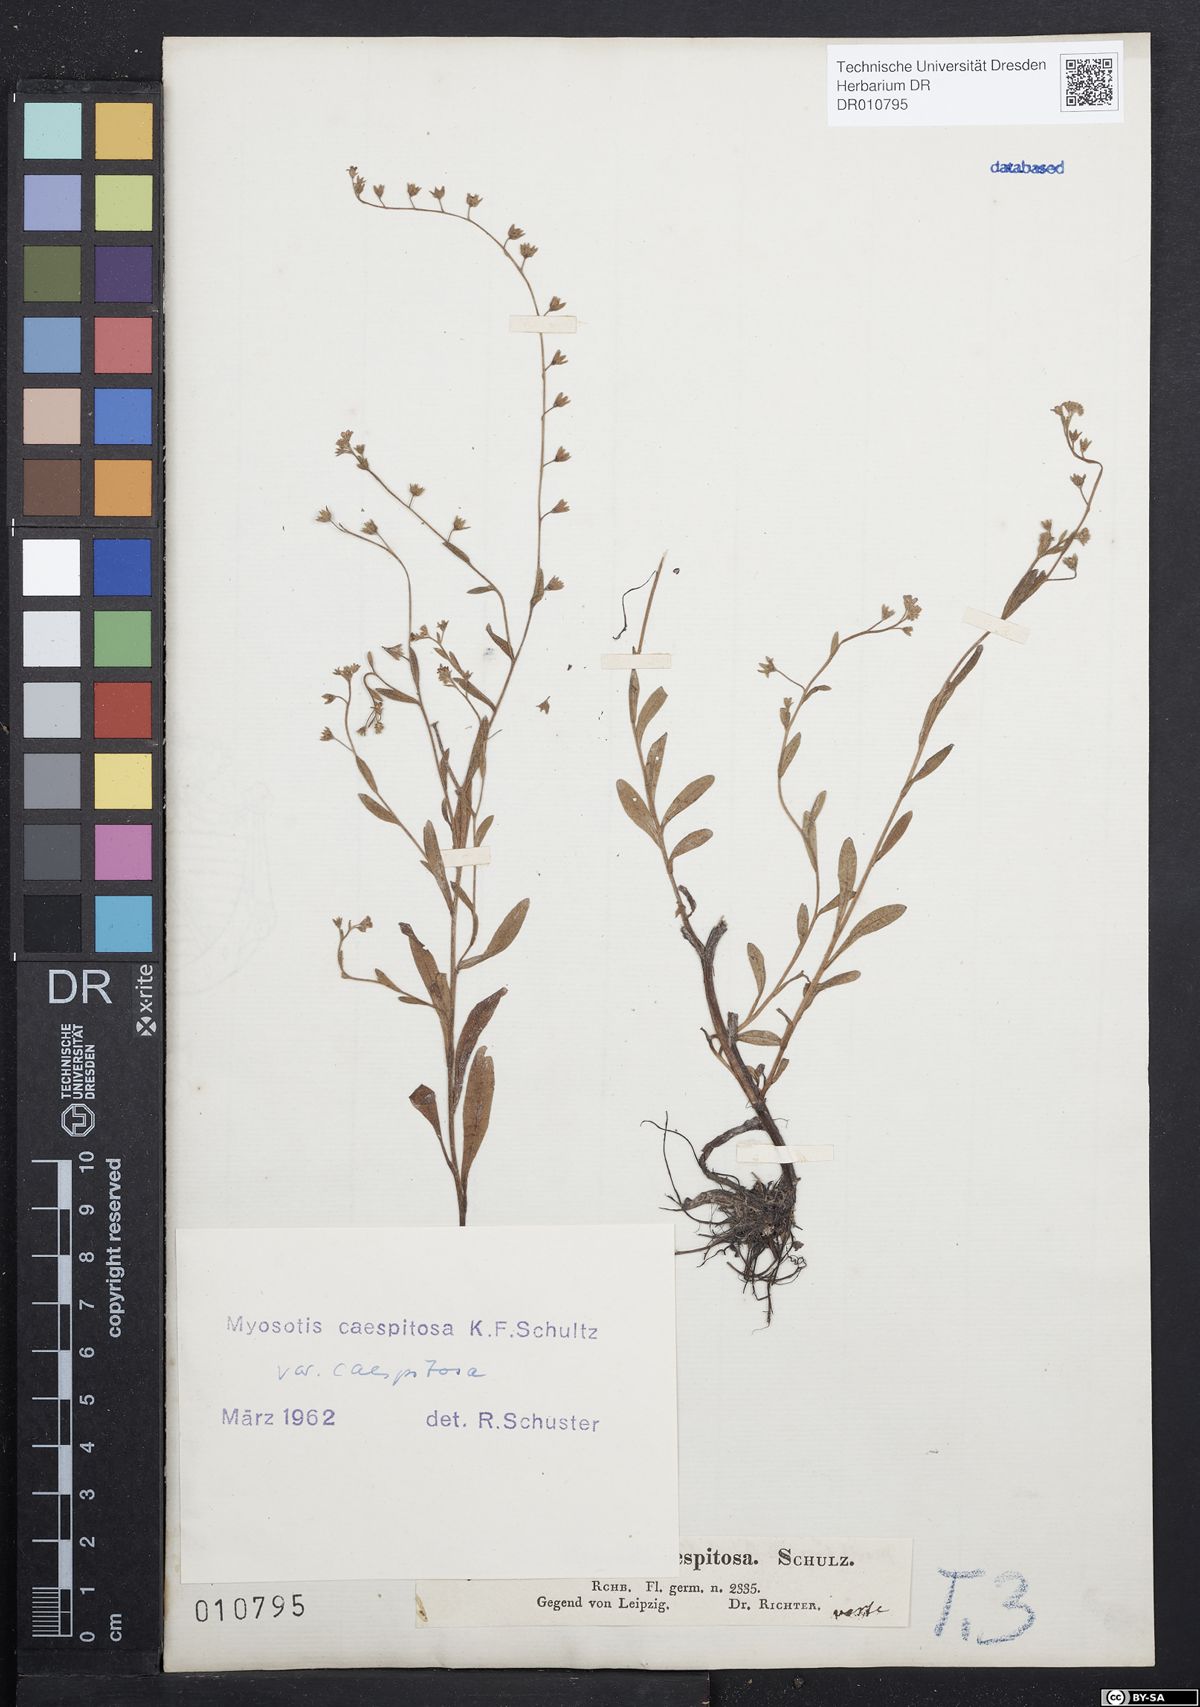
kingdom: Plantae
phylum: Tracheophyta
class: Magnoliopsida
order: Boraginales
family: Boraginaceae
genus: Myosotis
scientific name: Myosotis laxa
